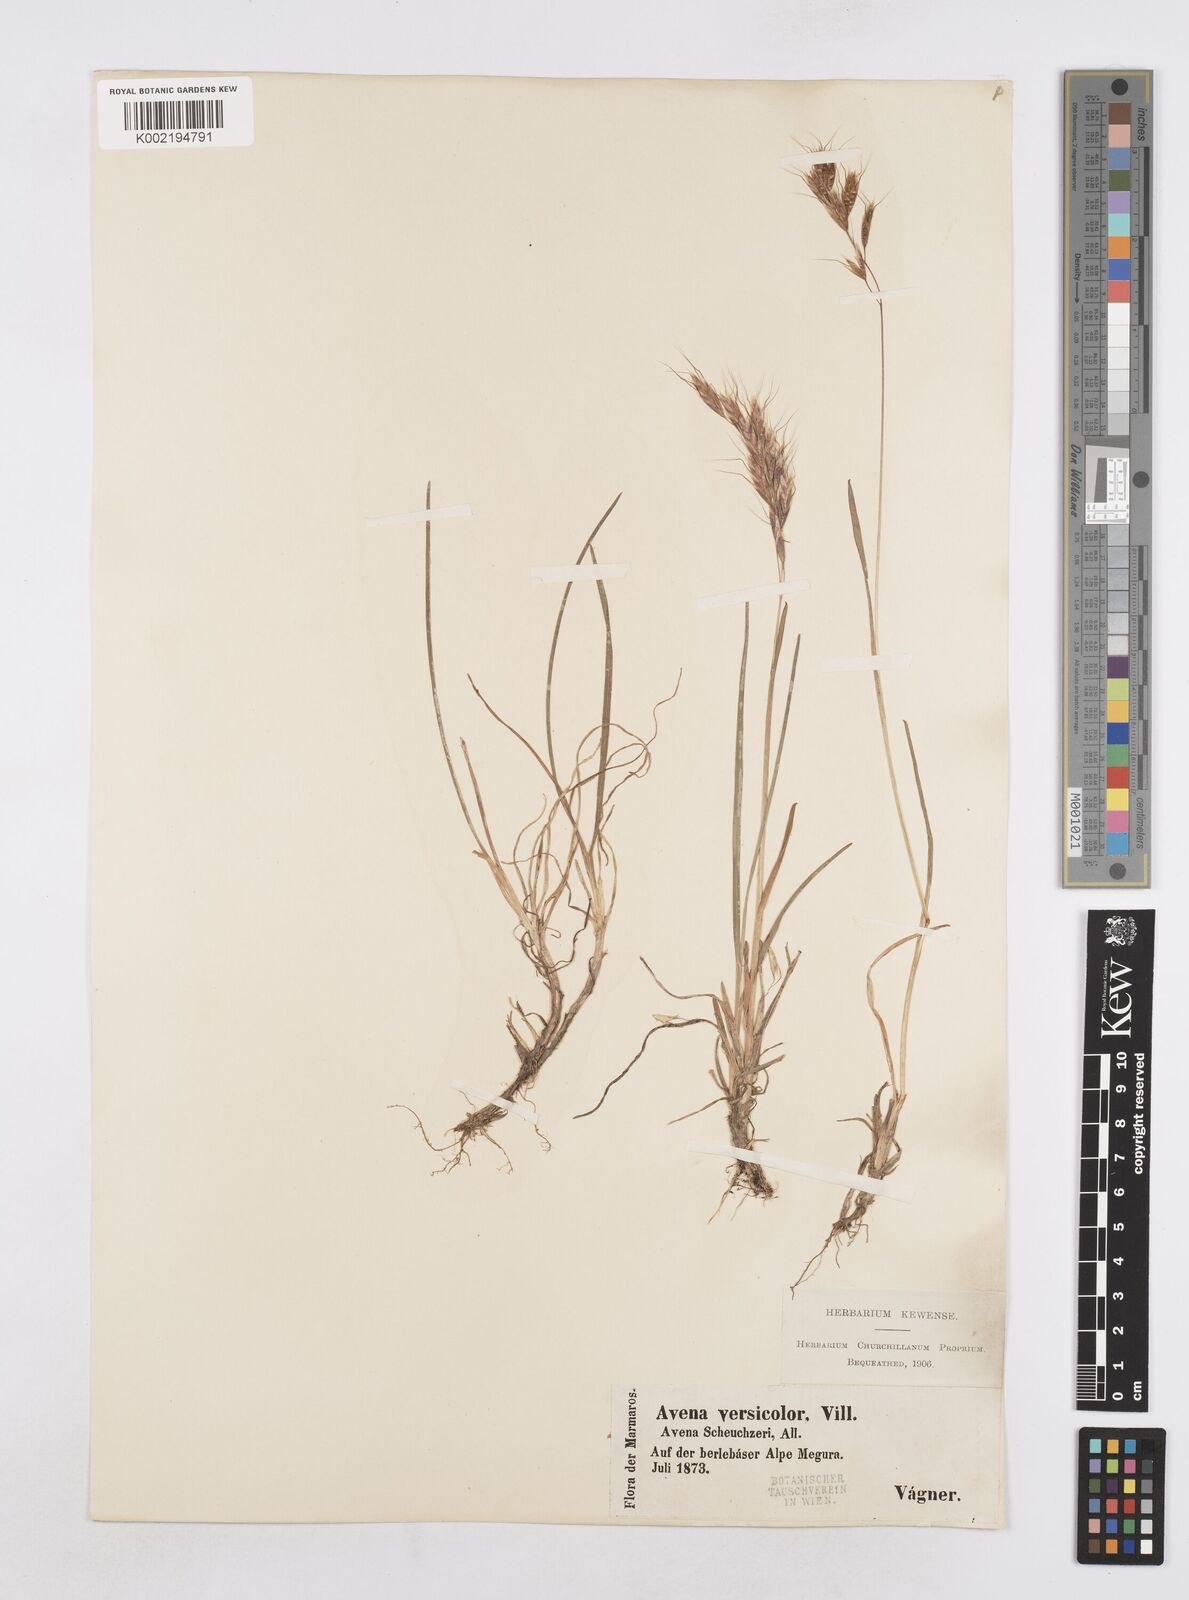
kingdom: Plantae
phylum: Tracheophyta
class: Liliopsida
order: Poales
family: Poaceae
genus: Helictochloa
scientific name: Helictochloa versicolor
